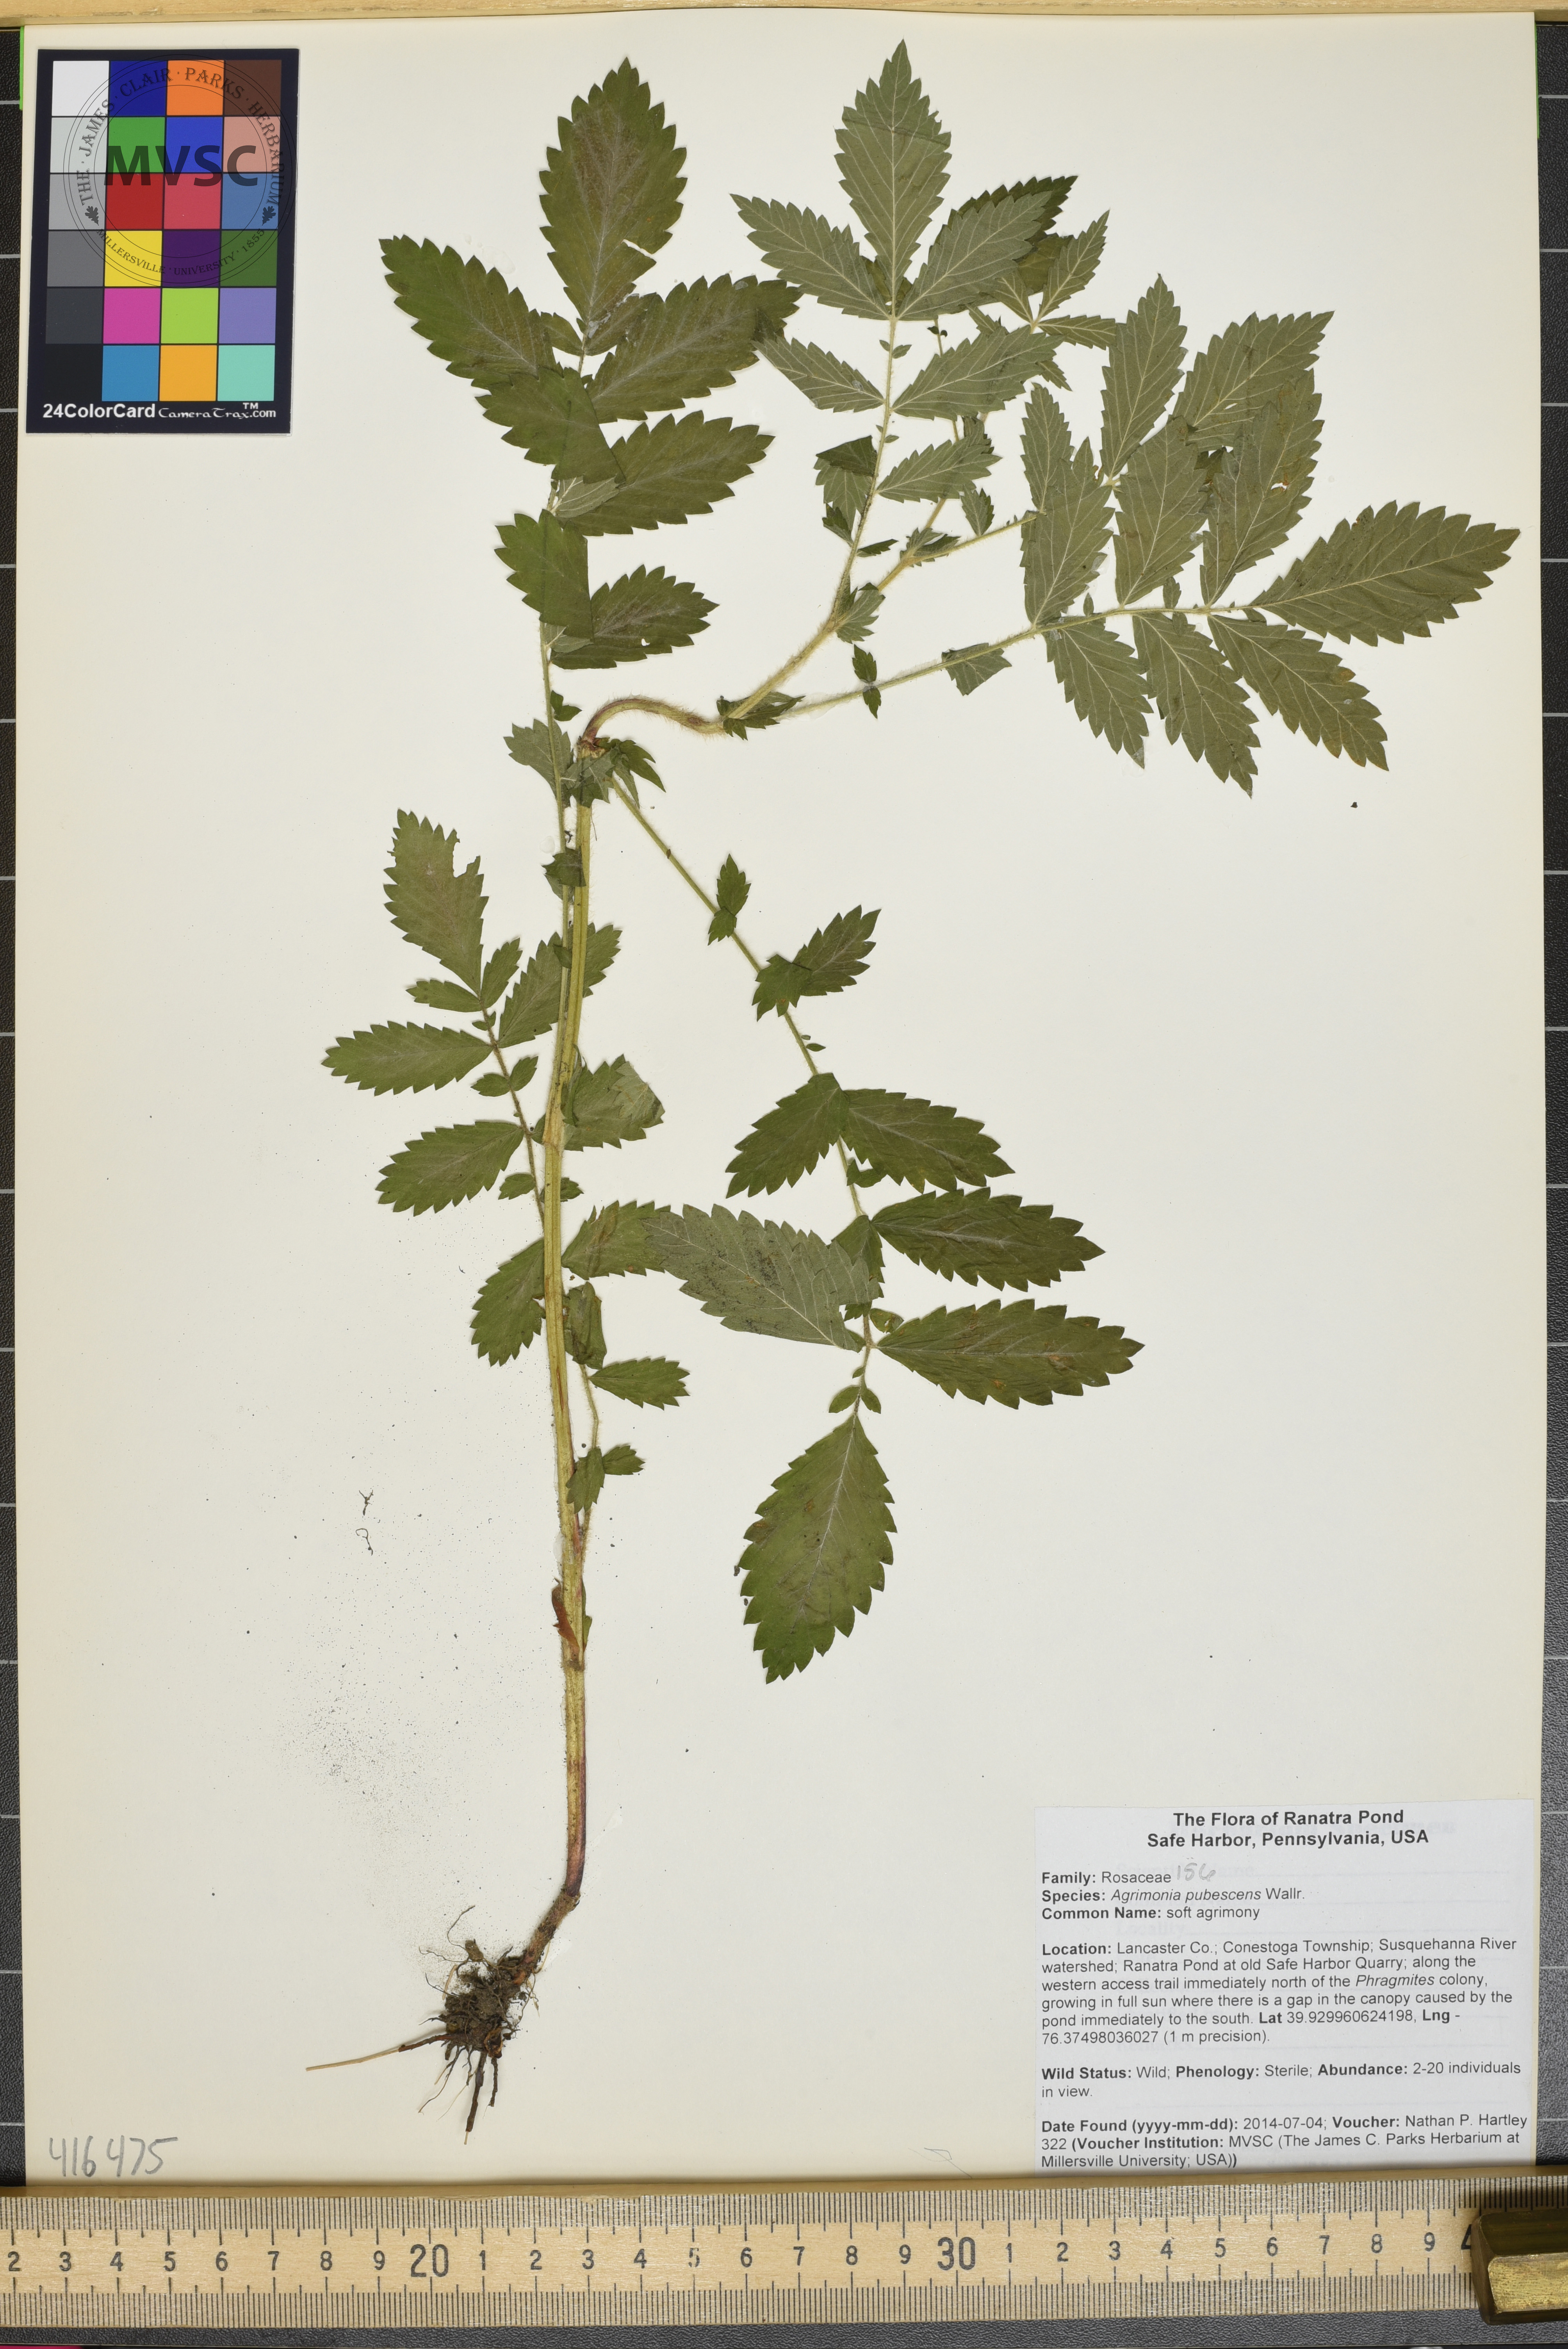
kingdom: Plantae
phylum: Tracheophyta
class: Magnoliopsida
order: Rosales
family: Rosaceae
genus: Agrimonia
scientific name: Agrimonia pubescens
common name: soft agrimony
